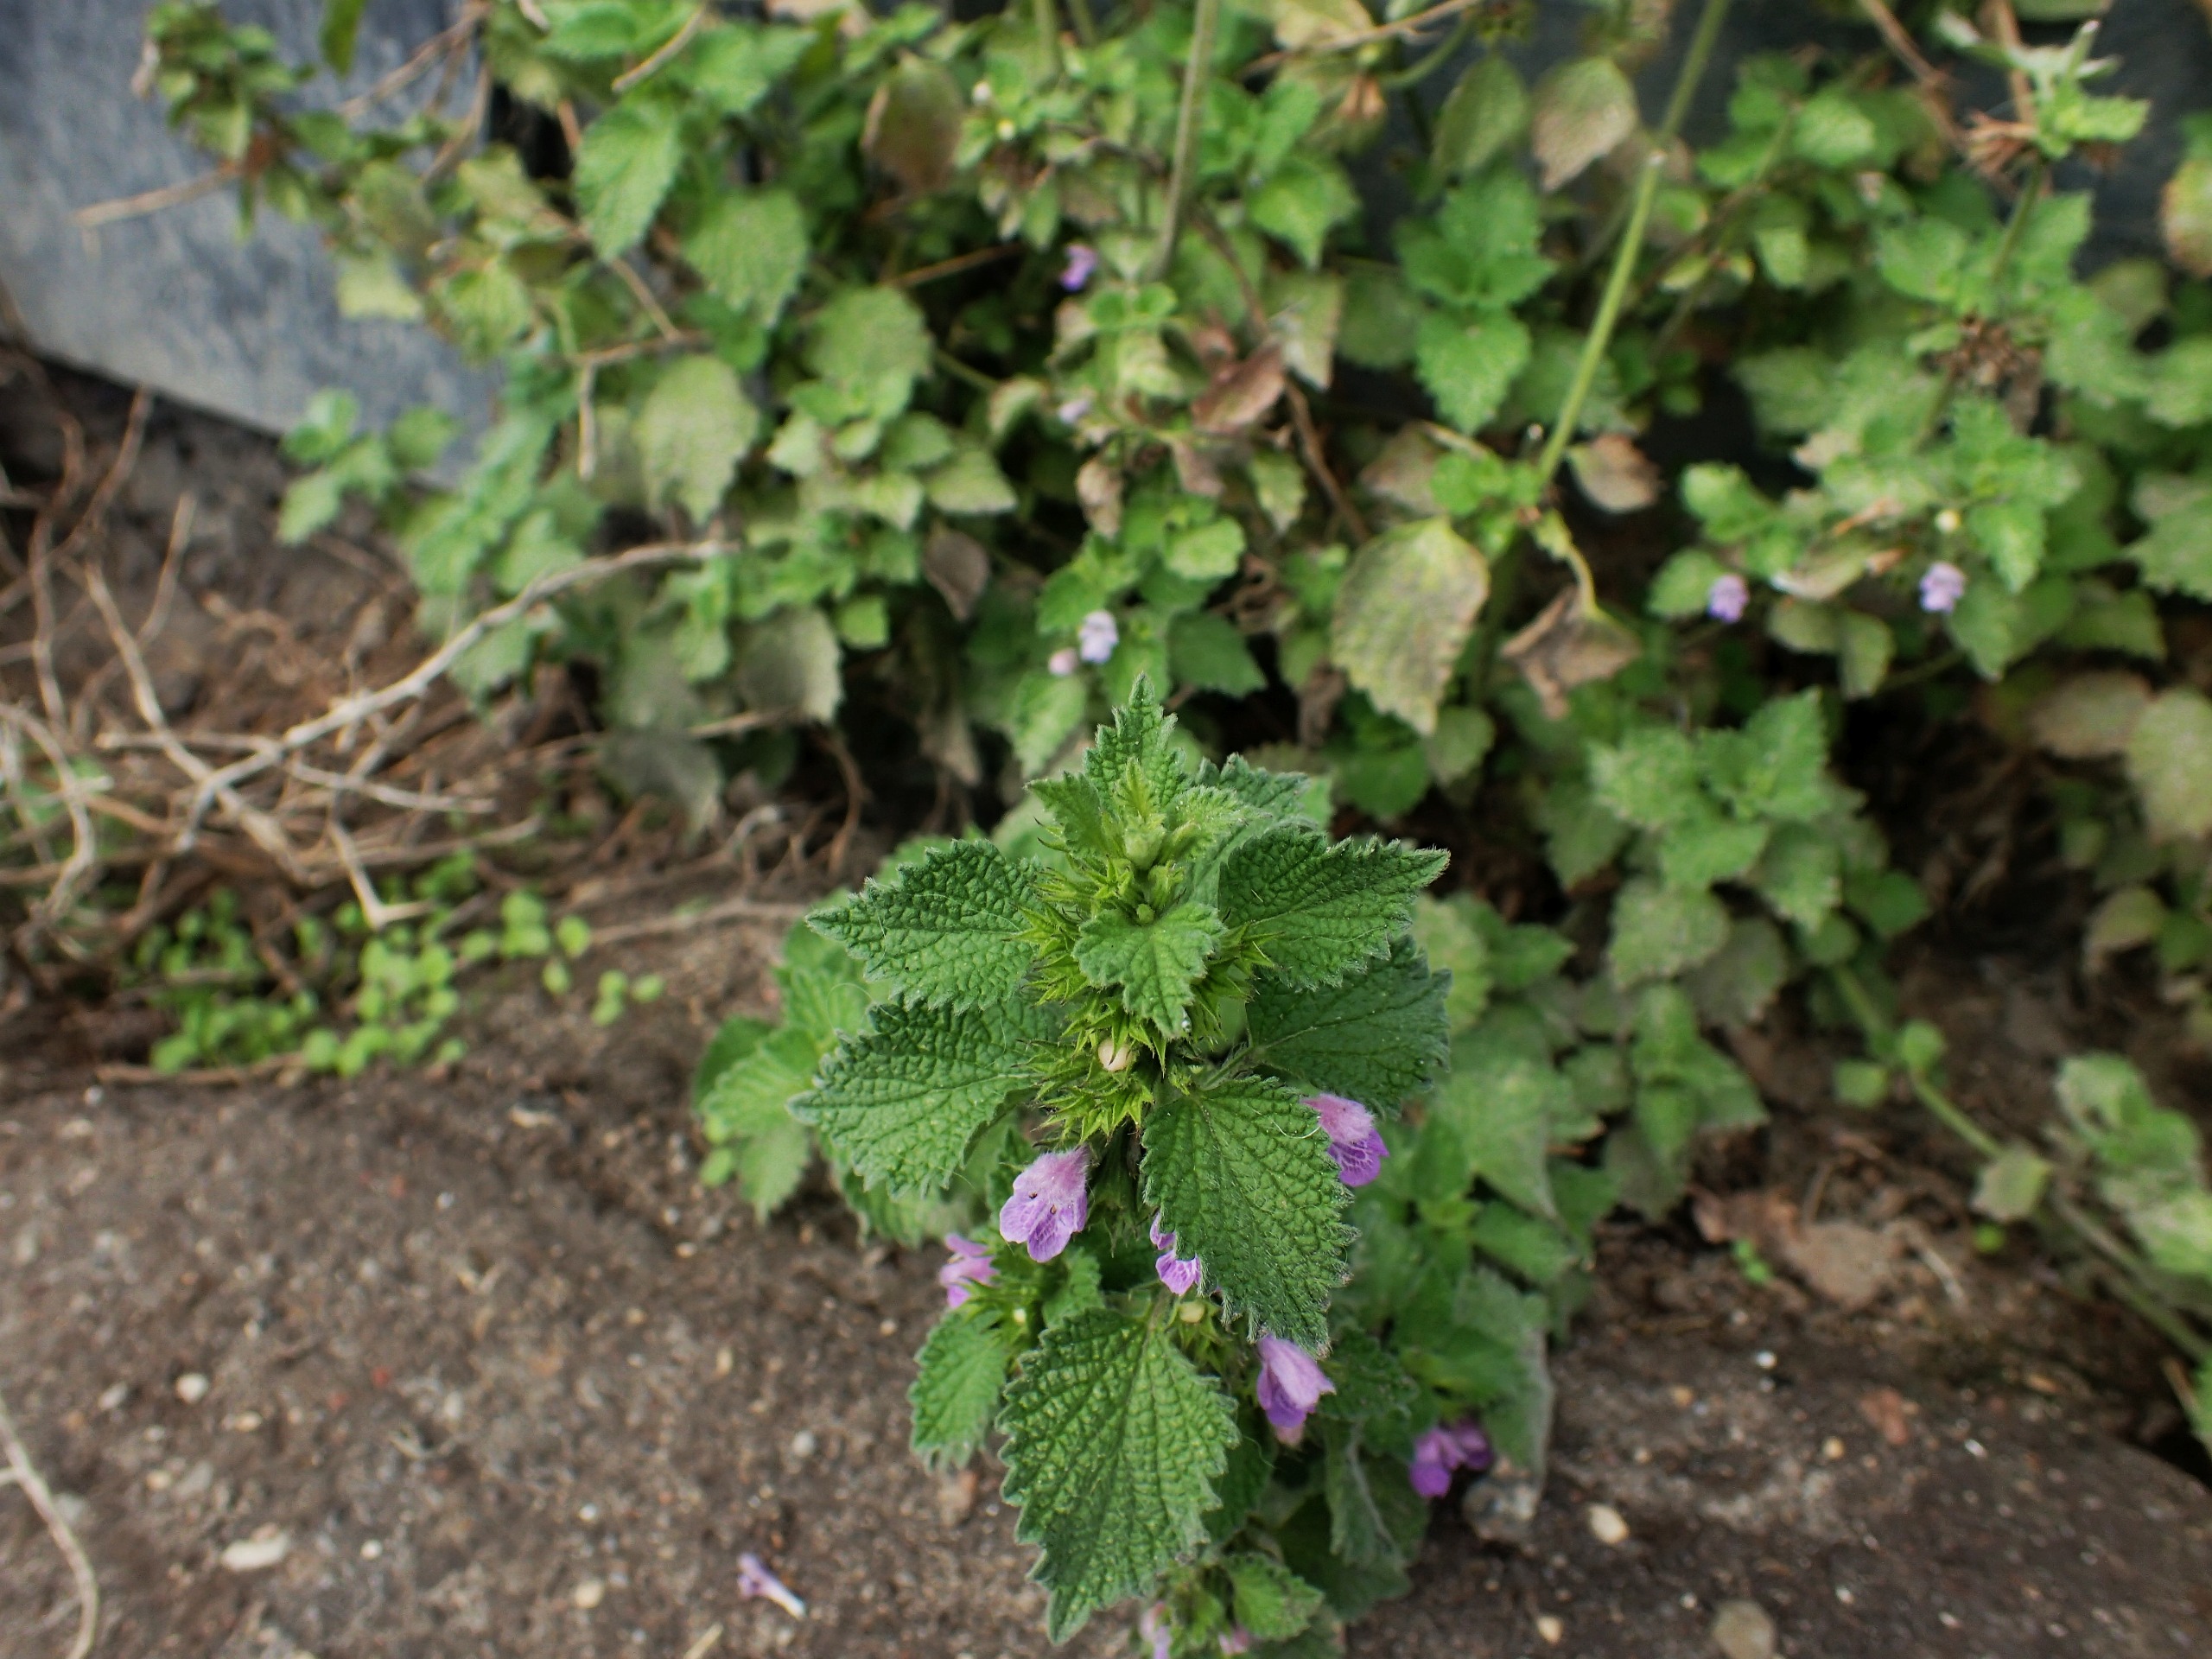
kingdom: Plantae
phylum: Tracheophyta
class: Magnoliopsida
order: Lamiales
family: Lamiaceae
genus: Ballota
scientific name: Ballota nigra
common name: Tandbæger
